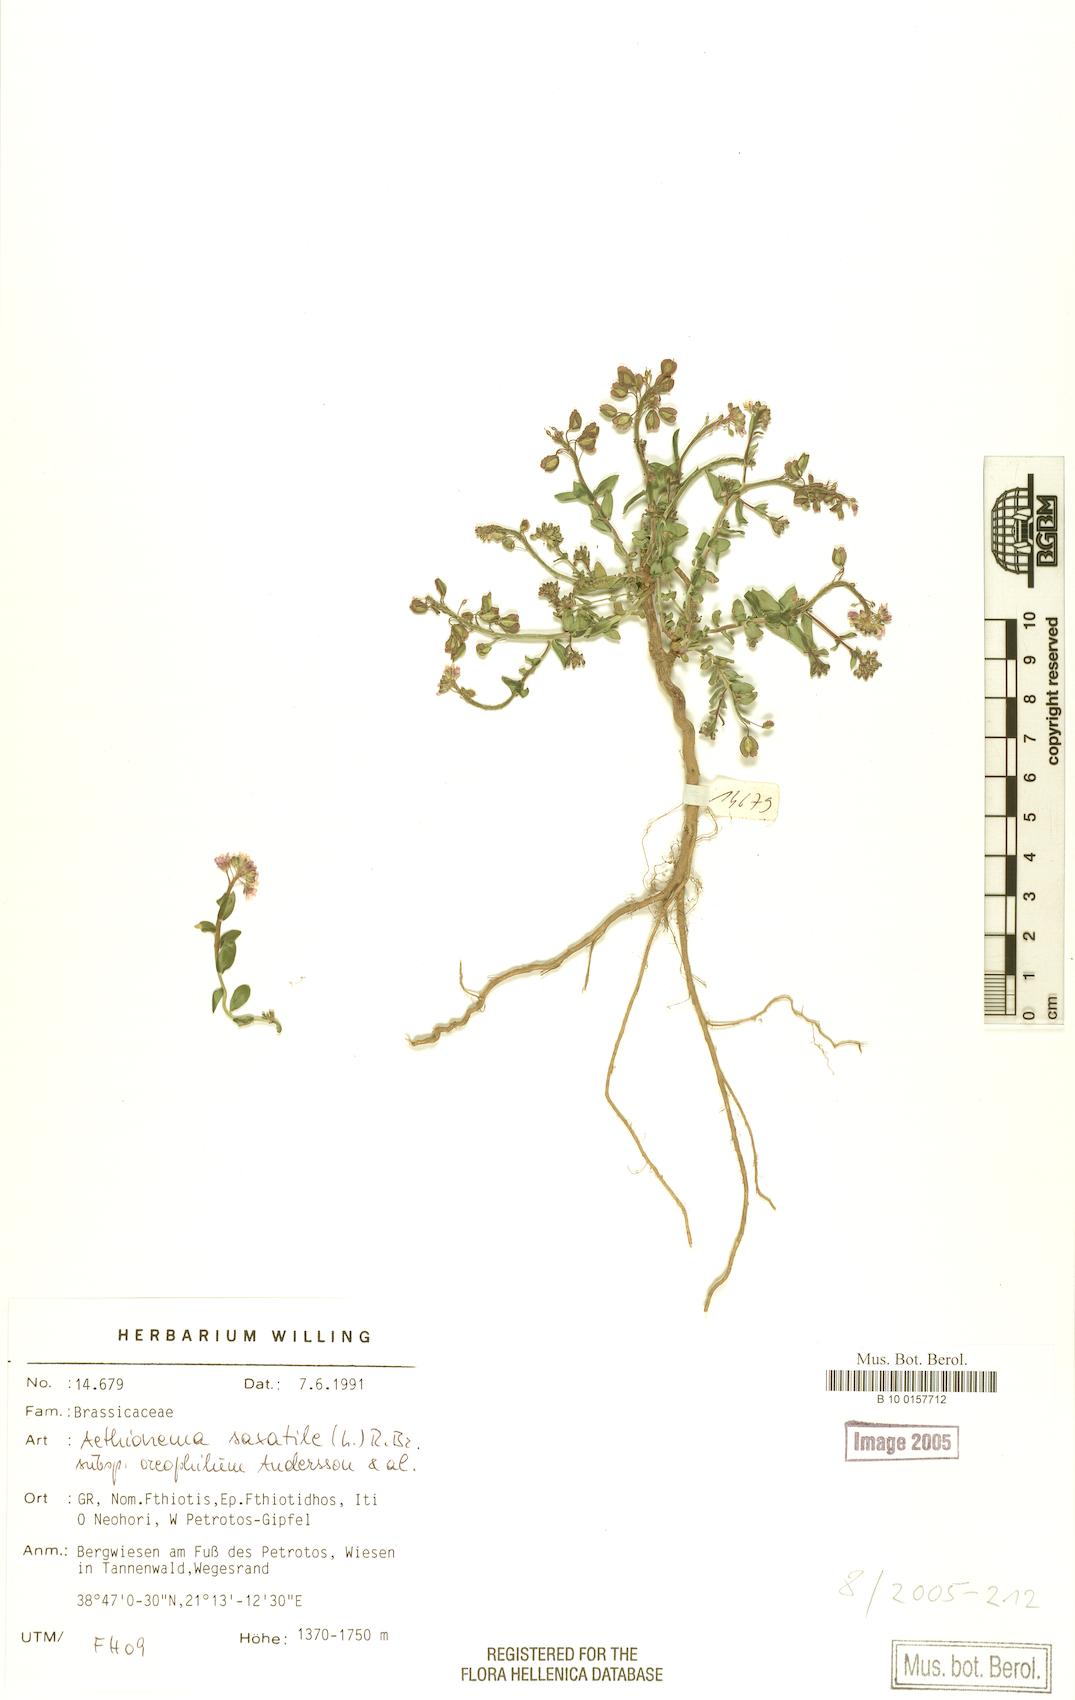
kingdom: Plantae
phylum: Tracheophyta
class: Magnoliopsida
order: Brassicales
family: Brassicaceae
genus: Aethionema
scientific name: Aethionema saxatile
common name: Burnt candytuft
